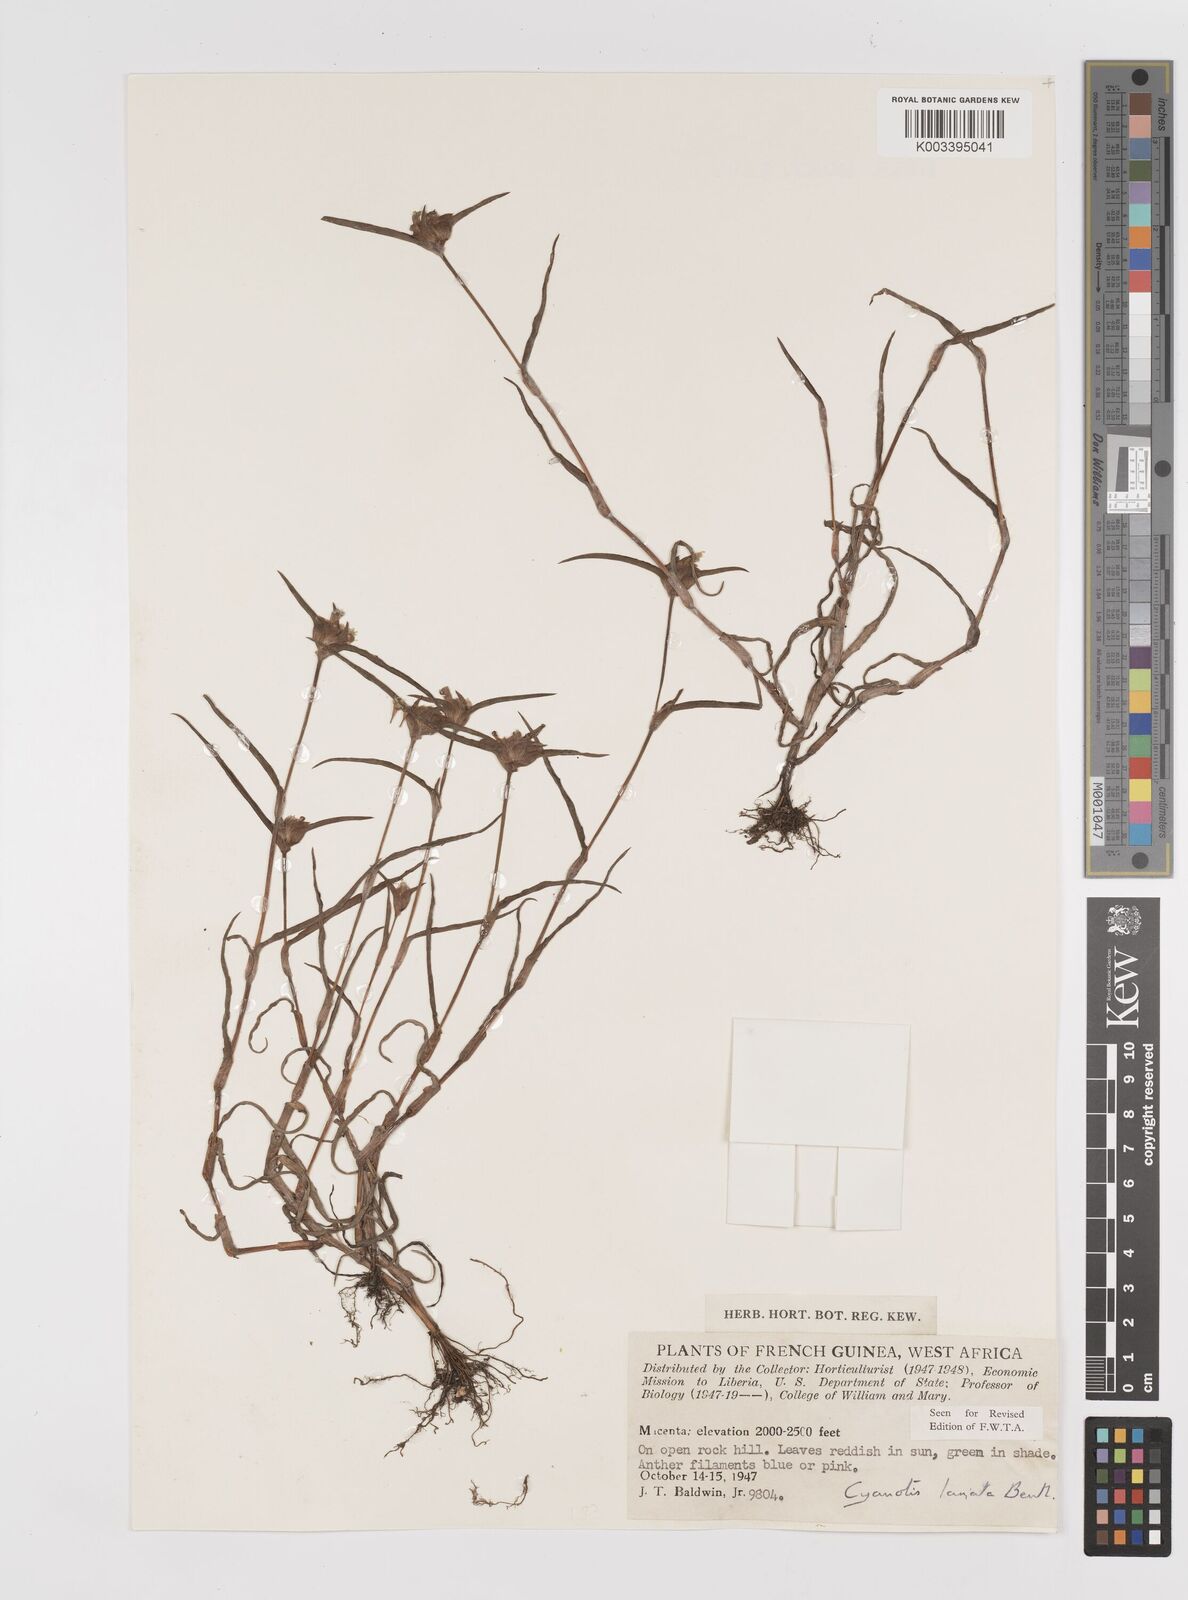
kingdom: Plantae
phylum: Tracheophyta
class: Liliopsida
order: Commelinales
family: Commelinaceae
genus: Cyanotis
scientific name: Cyanotis lanata
